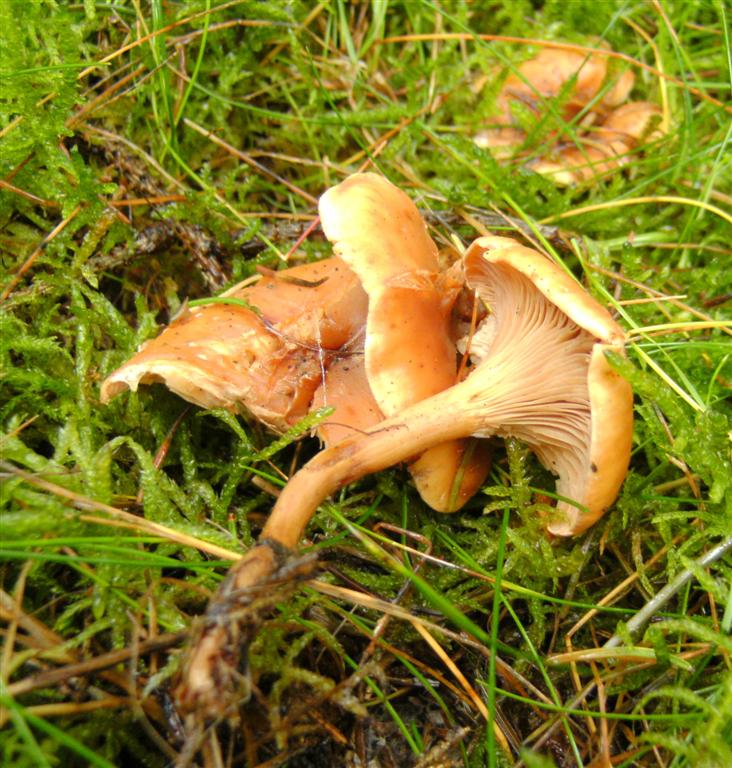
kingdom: Fungi
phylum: Basidiomycota
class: Agaricomycetes
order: Agaricales
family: Tricholomataceae
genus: Paralepista
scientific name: Paralepista flaccida
